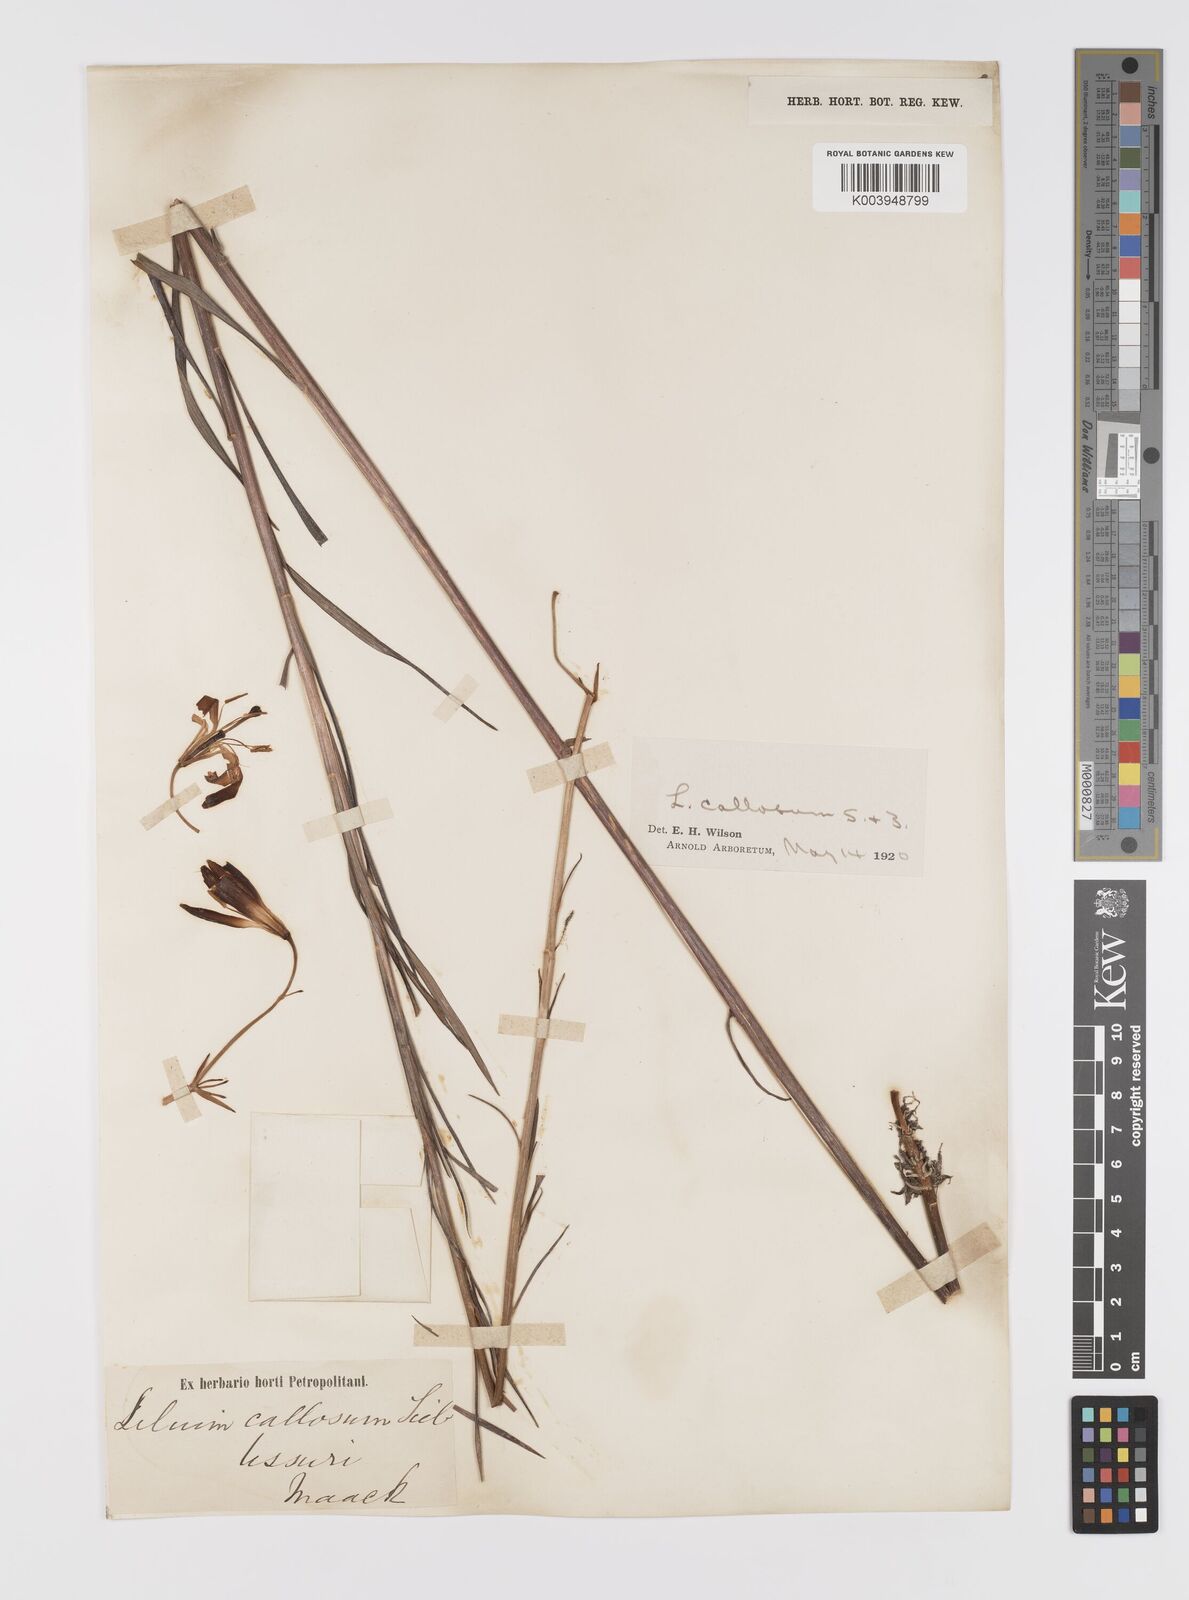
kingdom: Plantae
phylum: Tracheophyta
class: Liliopsida
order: Liliales
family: Liliaceae
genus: Lilium
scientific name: Lilium callosum
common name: Slim-stem lily
